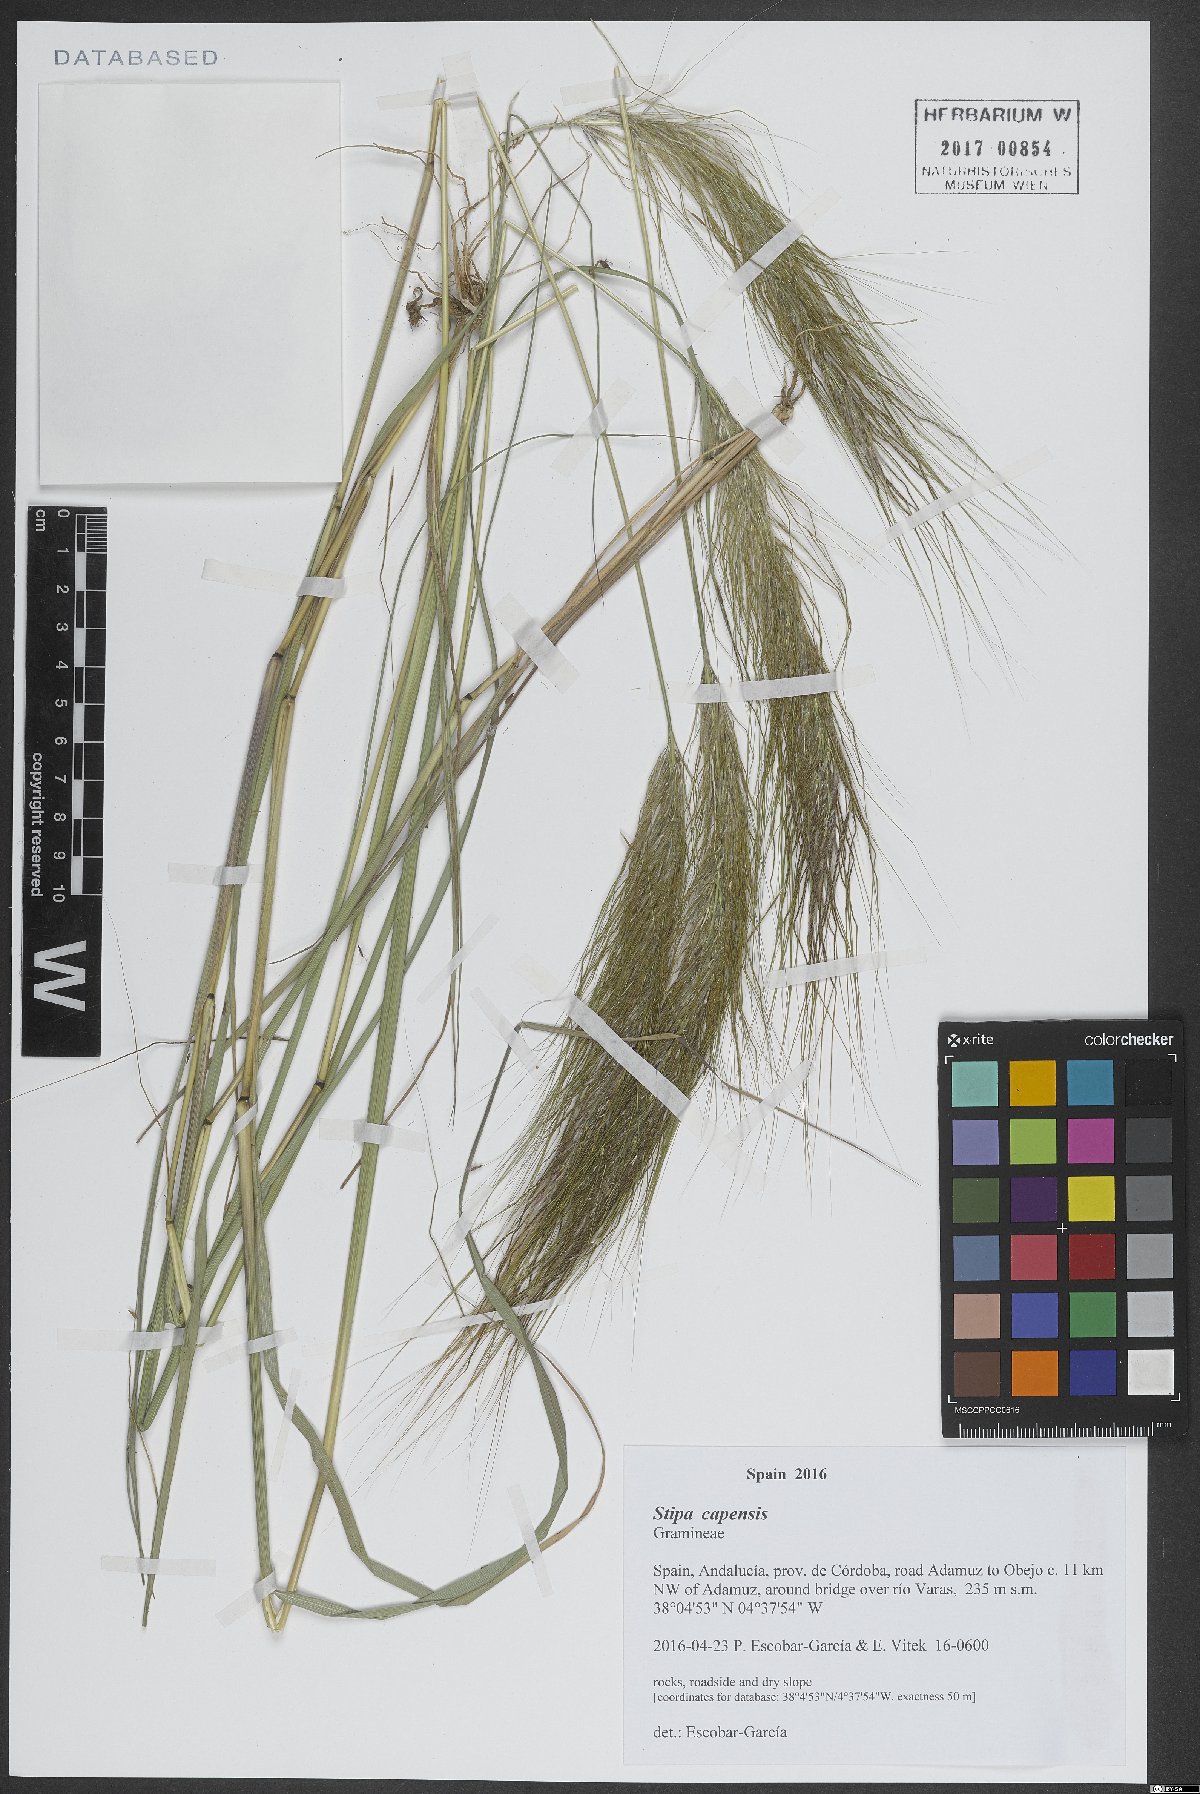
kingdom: Plantae
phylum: Tracheophyta
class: Liliopsida
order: Poales
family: Poaceae
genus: Stipellula
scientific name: Stipellula capensis
